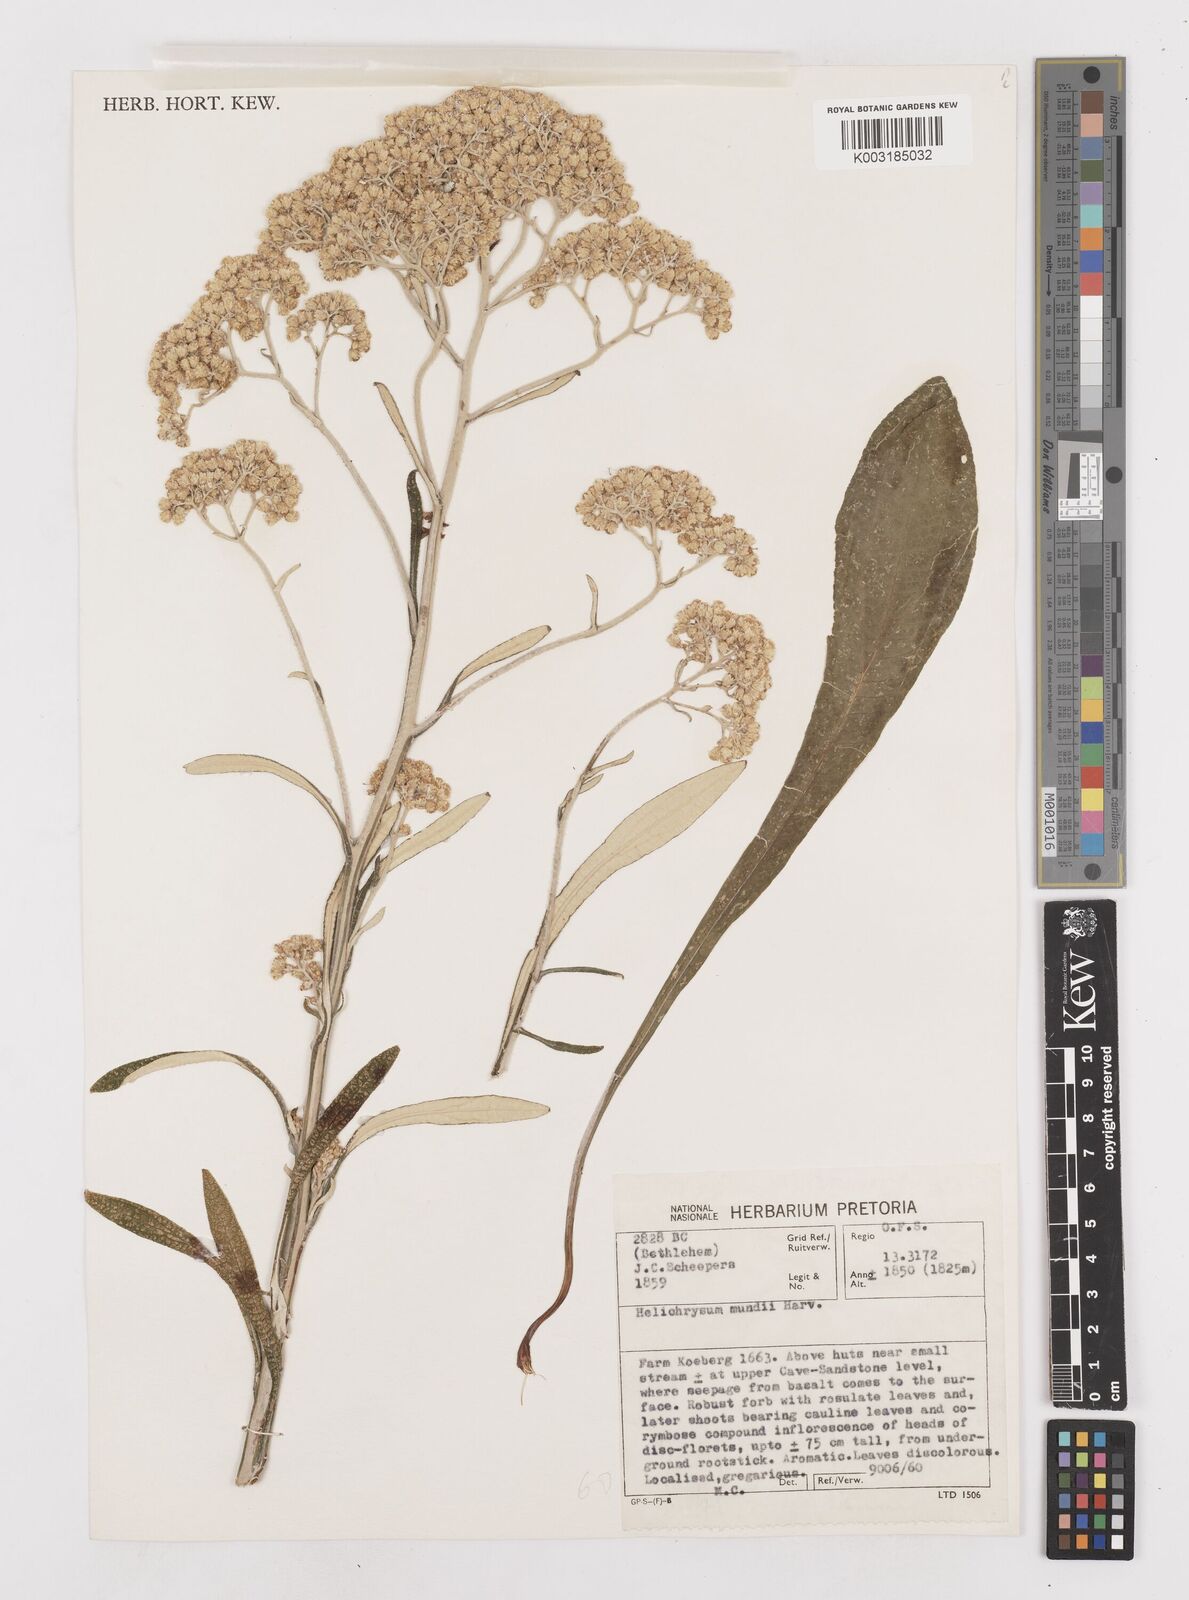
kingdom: Plantae
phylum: Tracheophyta
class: Magnoliopsida
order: Asterales
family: Asteraceae
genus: Helichrysum
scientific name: Helichrysum mundii
